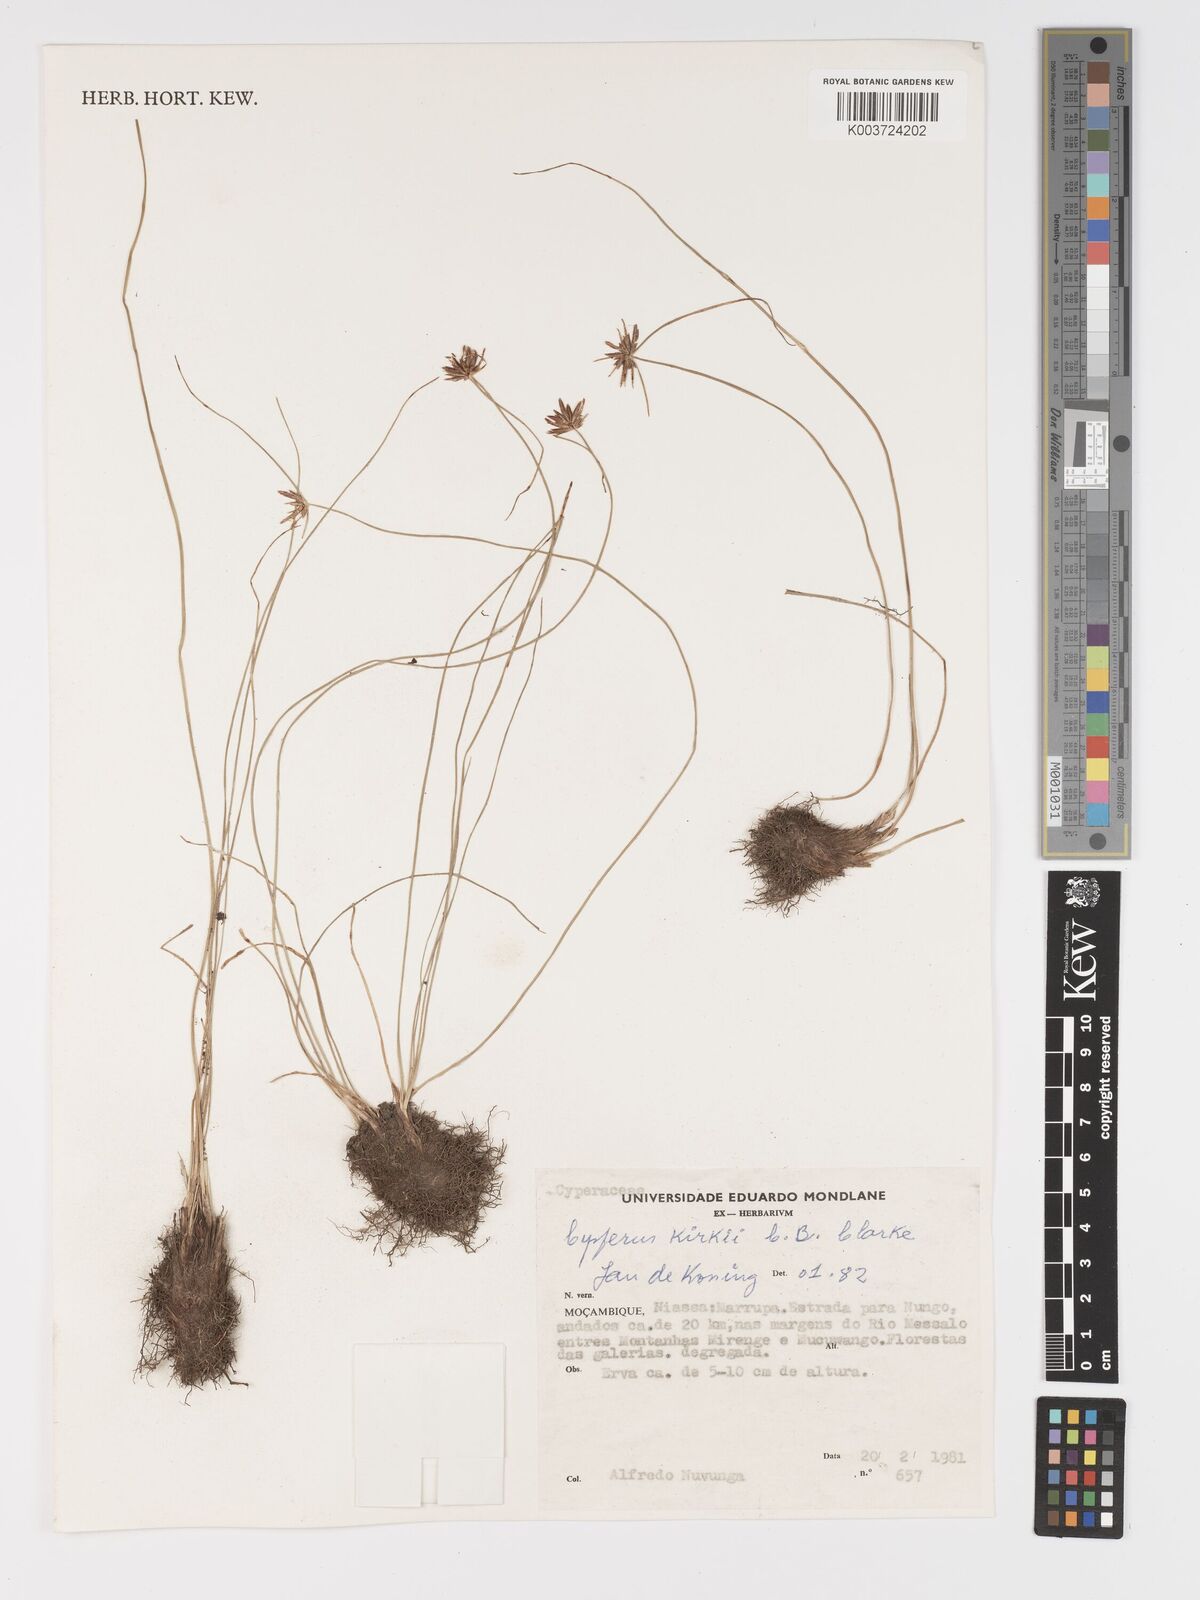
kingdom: Plantae
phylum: Tracheophyta
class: Liliopsida
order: Poales
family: Cyperaceae
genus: Cyperus
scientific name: Cyperus semitrifidus
